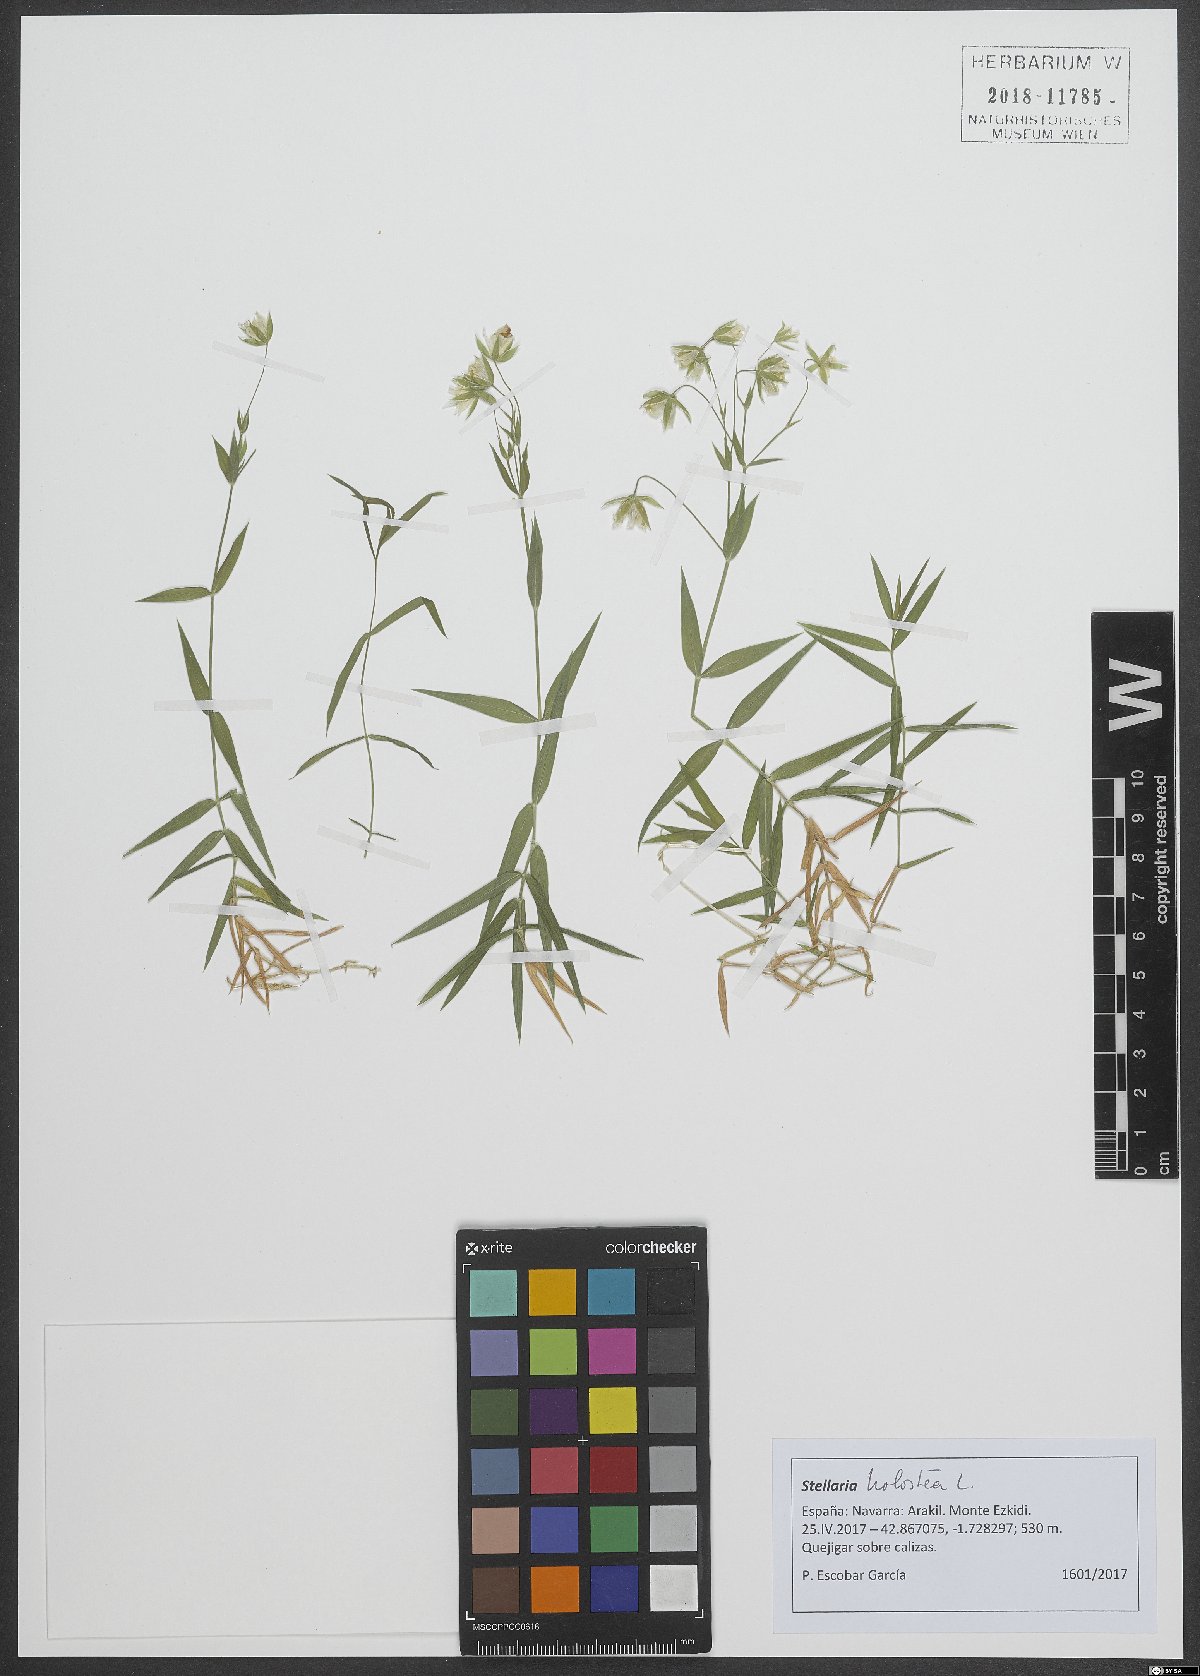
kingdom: Plantae
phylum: Tracheophyta
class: Magnoliopsida
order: Caryophyllales
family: Caryophyllaceae
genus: Rabelera
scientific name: Rabelera holostea
